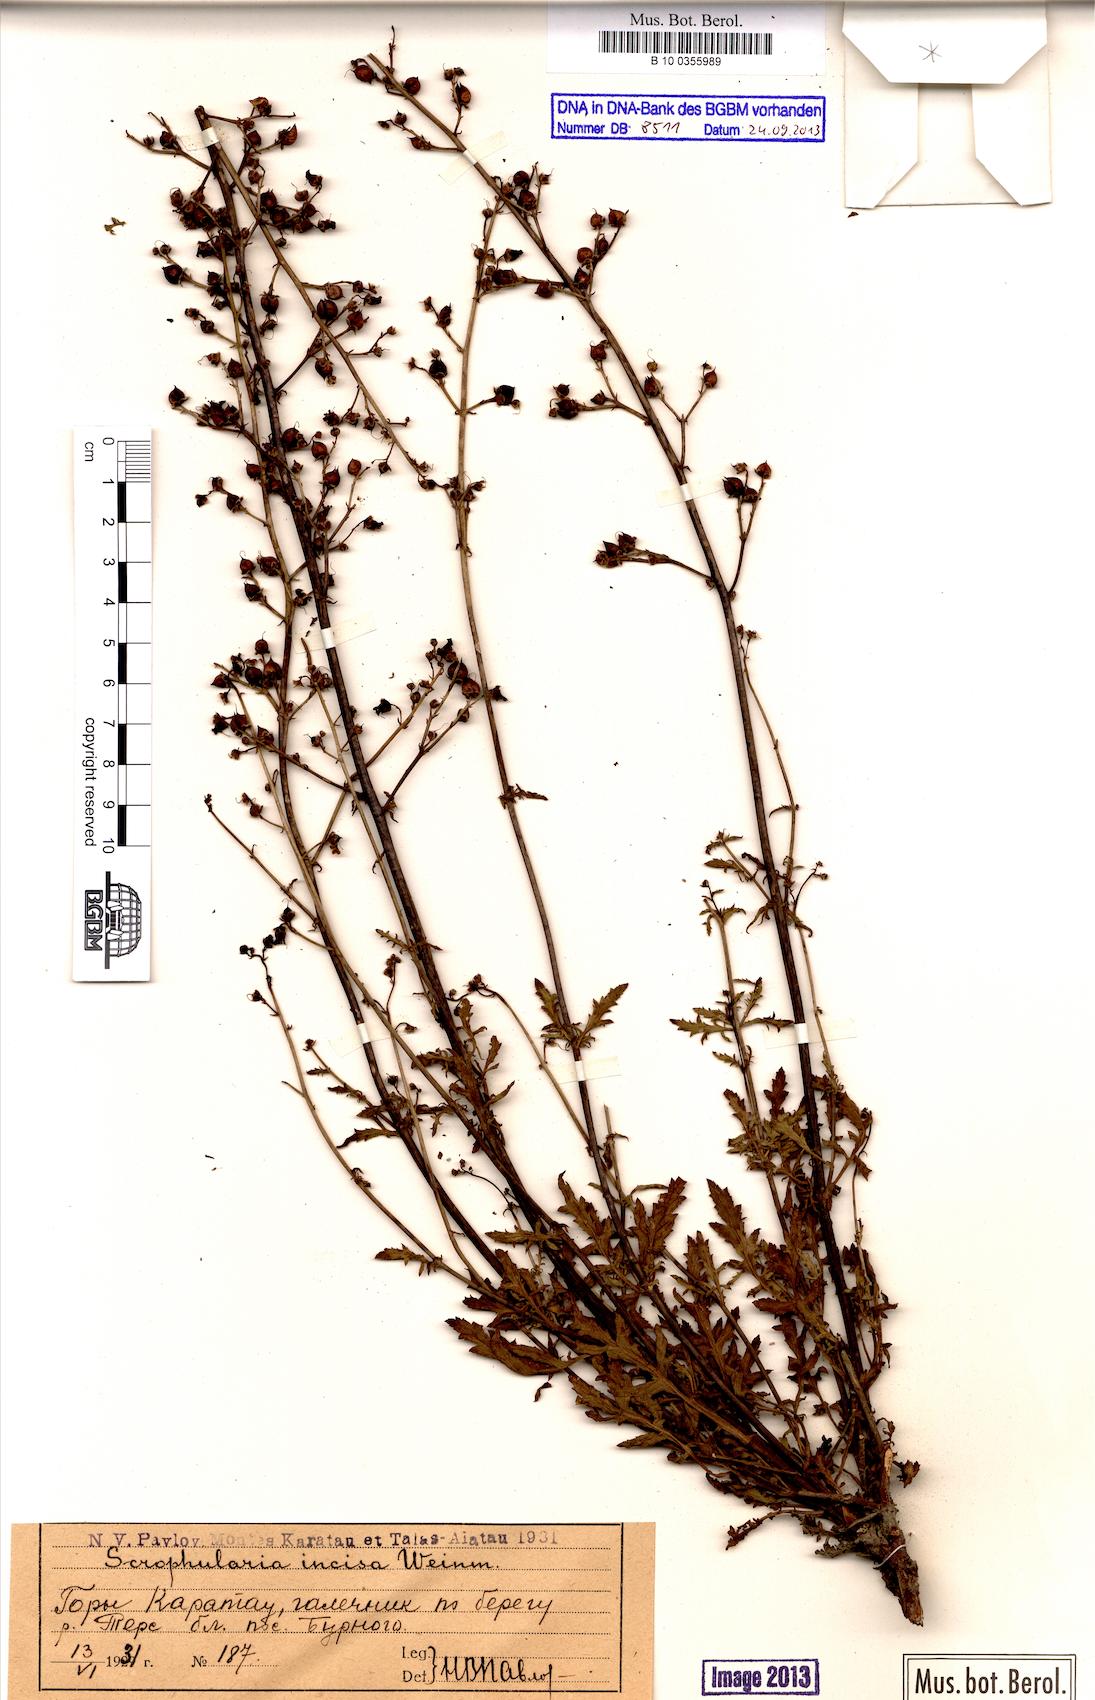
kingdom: Plantae
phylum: Tracheophyta
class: Magnoliopsida
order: Lamiales
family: Scrophulariaceae
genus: Scrophularia
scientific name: Scrophularia incisa
